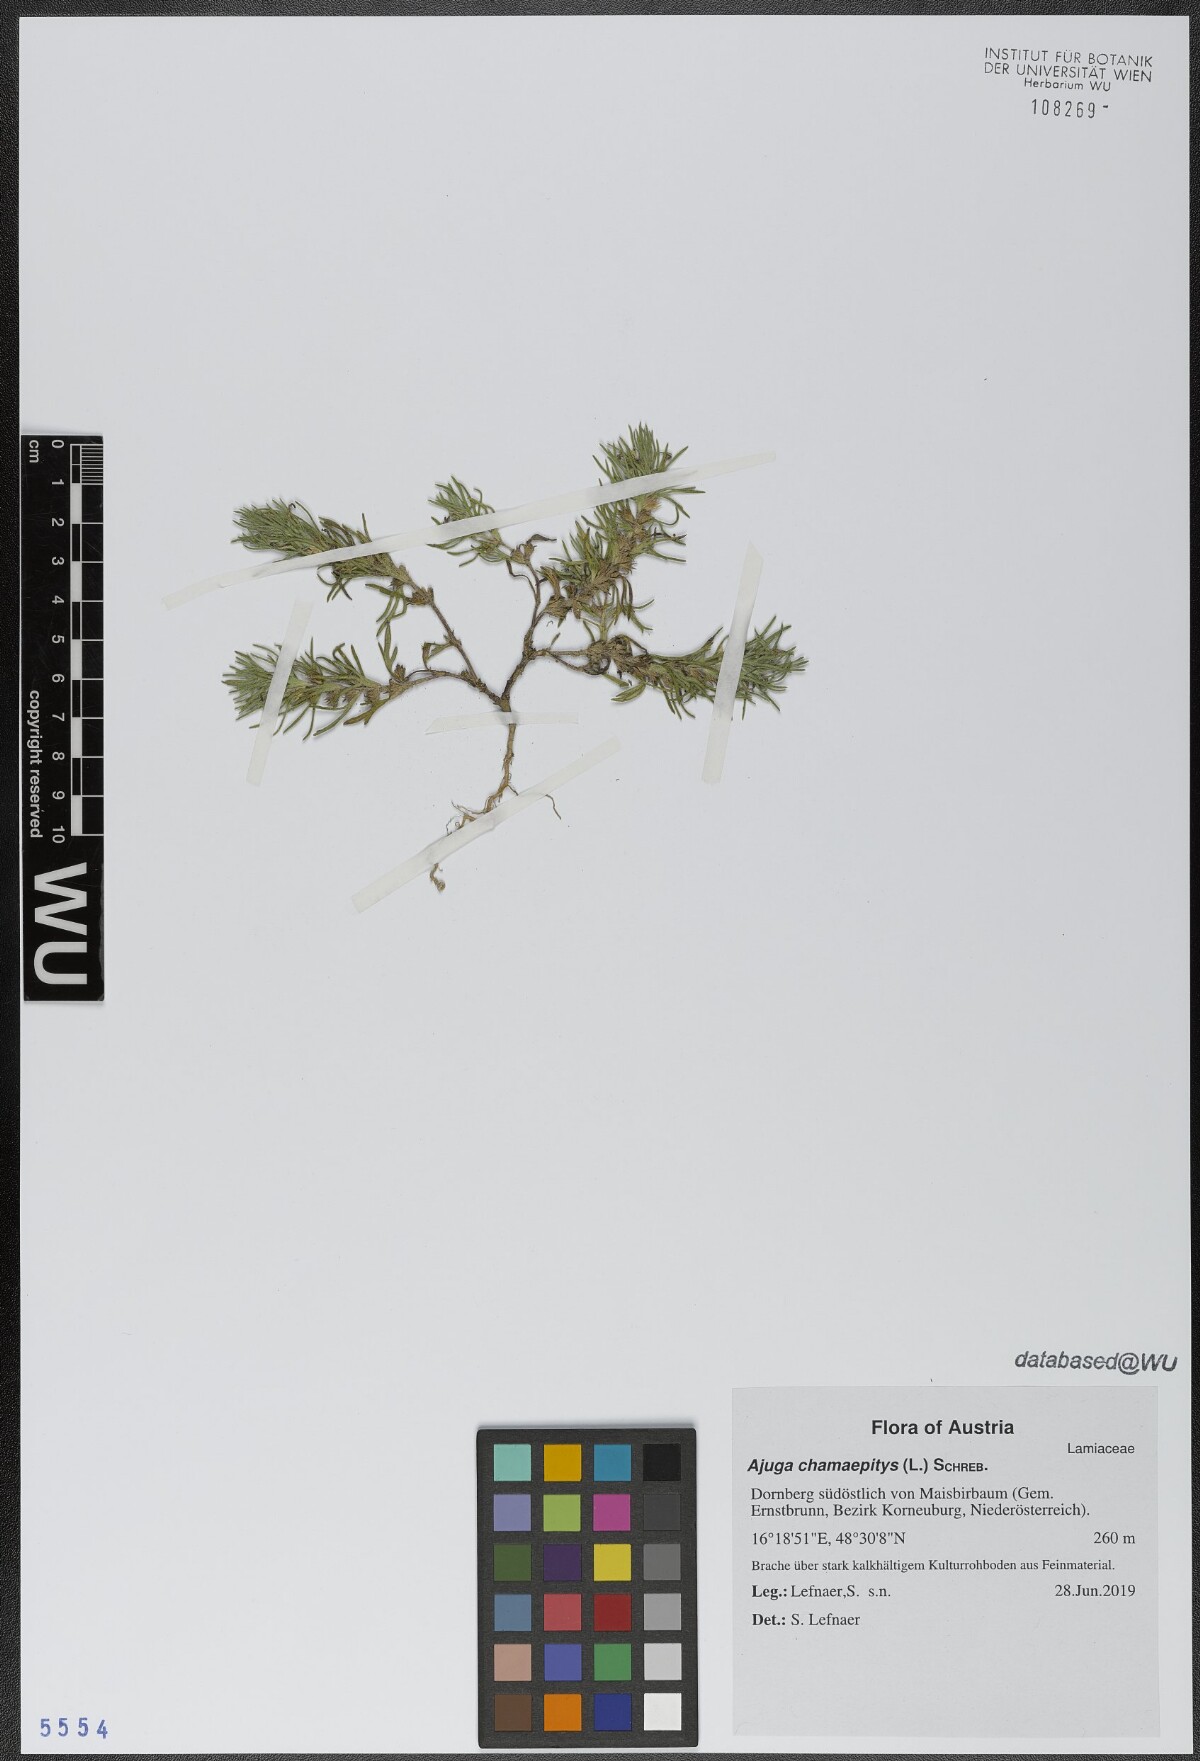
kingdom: Plantae
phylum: Tracheophyta
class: Magnoliopsida
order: Lamiales
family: Lamiaceae
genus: Ajuga
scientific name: Ajuga chamaepitys
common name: Ground-pine
